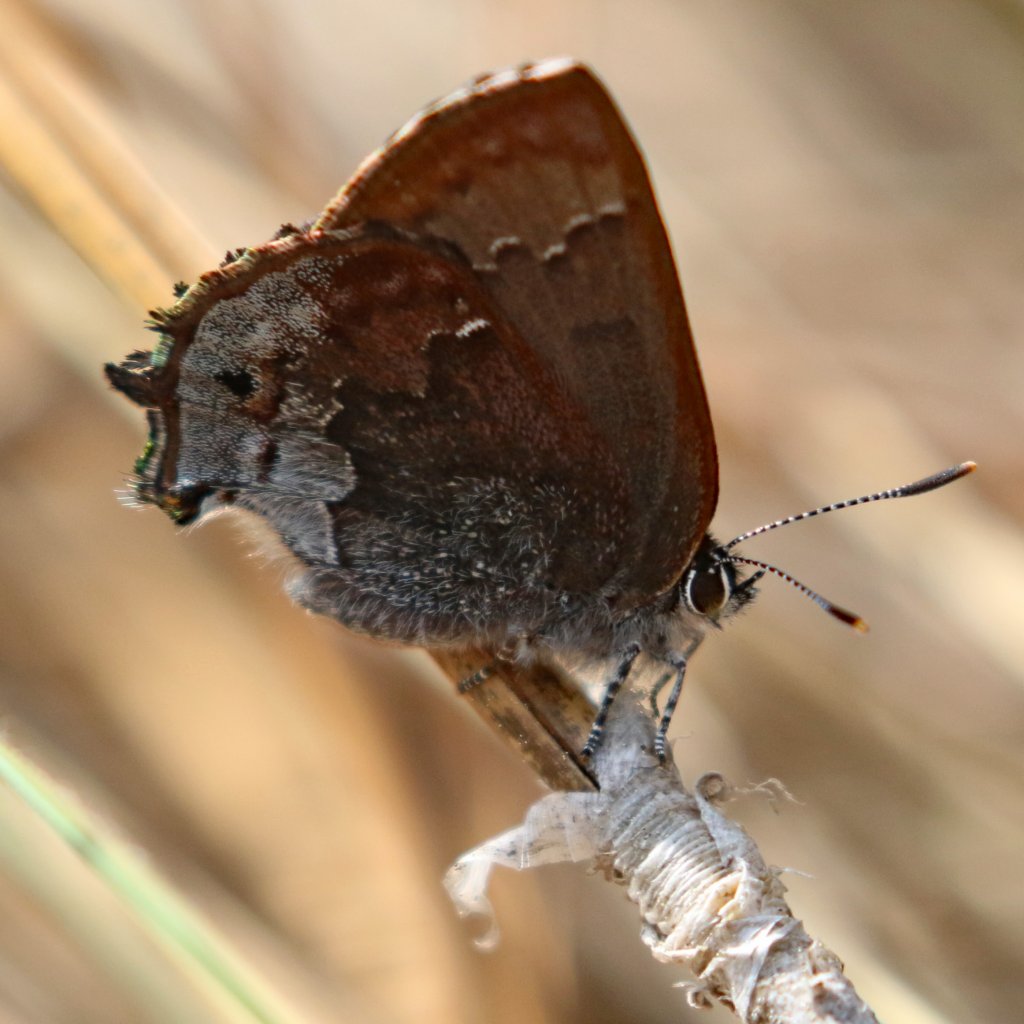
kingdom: Animalia
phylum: Arthropoda
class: Insecta
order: Lepidoptera
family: Lycaenidae
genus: Thecla
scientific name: Thecla irus
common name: Frosted Elfin
